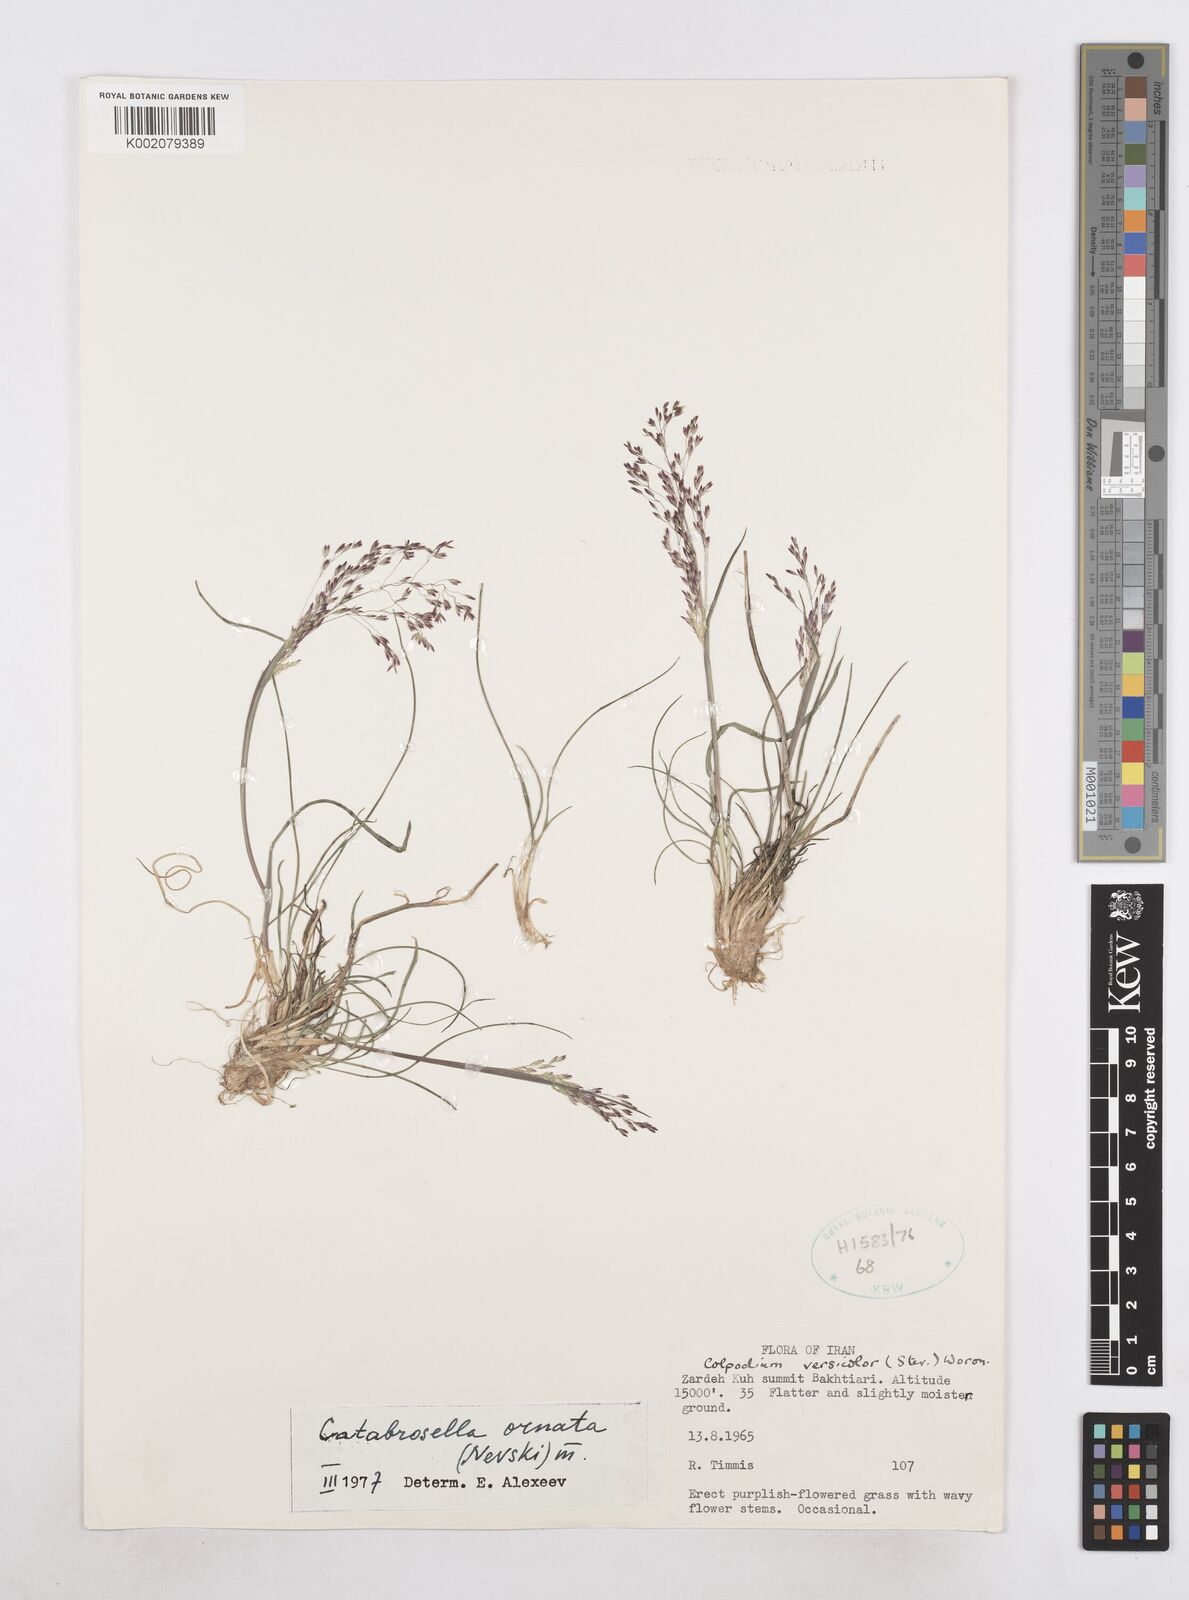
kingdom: Plantae
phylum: Tracheophyta
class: Liliopsida
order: Poales
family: Poaceae
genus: Catabrosella
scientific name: Catabrosella humilis
